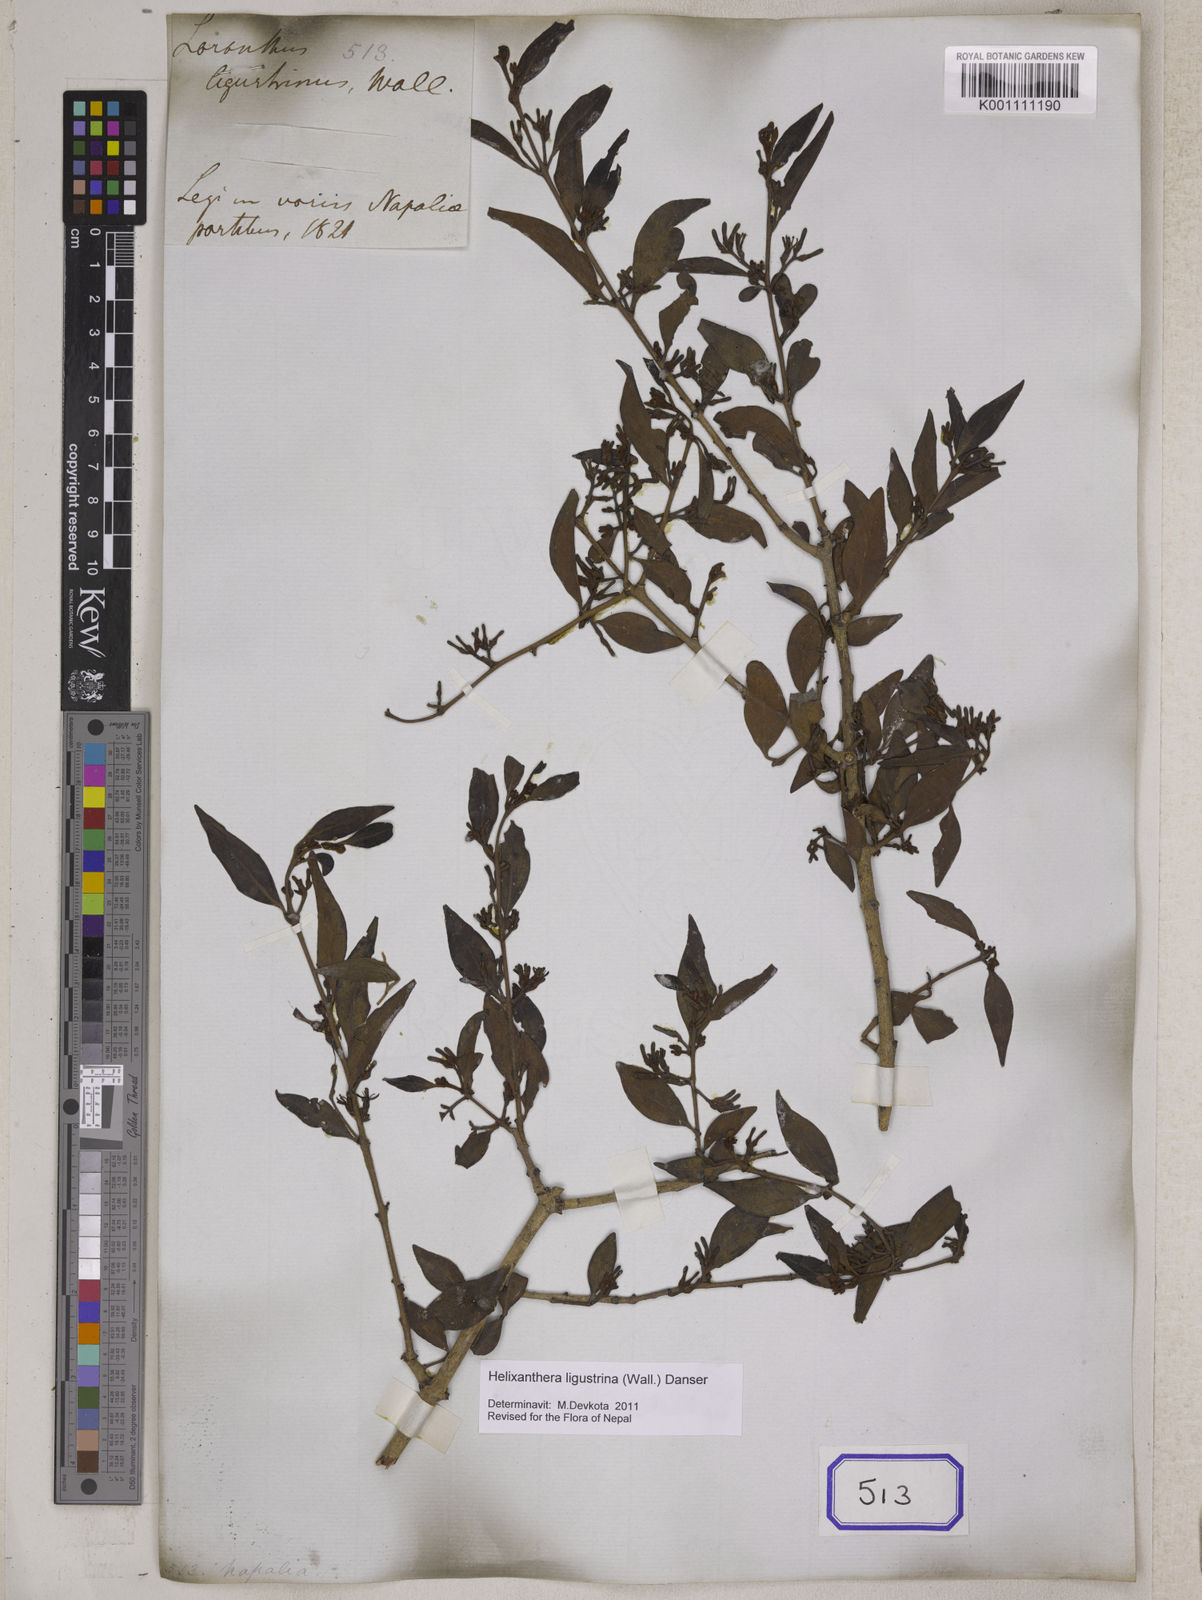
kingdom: Plantae
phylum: Tracheophyta
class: Magnoliopsida
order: Santalales
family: Loranthaceae
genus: Helixanthera
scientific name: Helixanthera ligustrina
